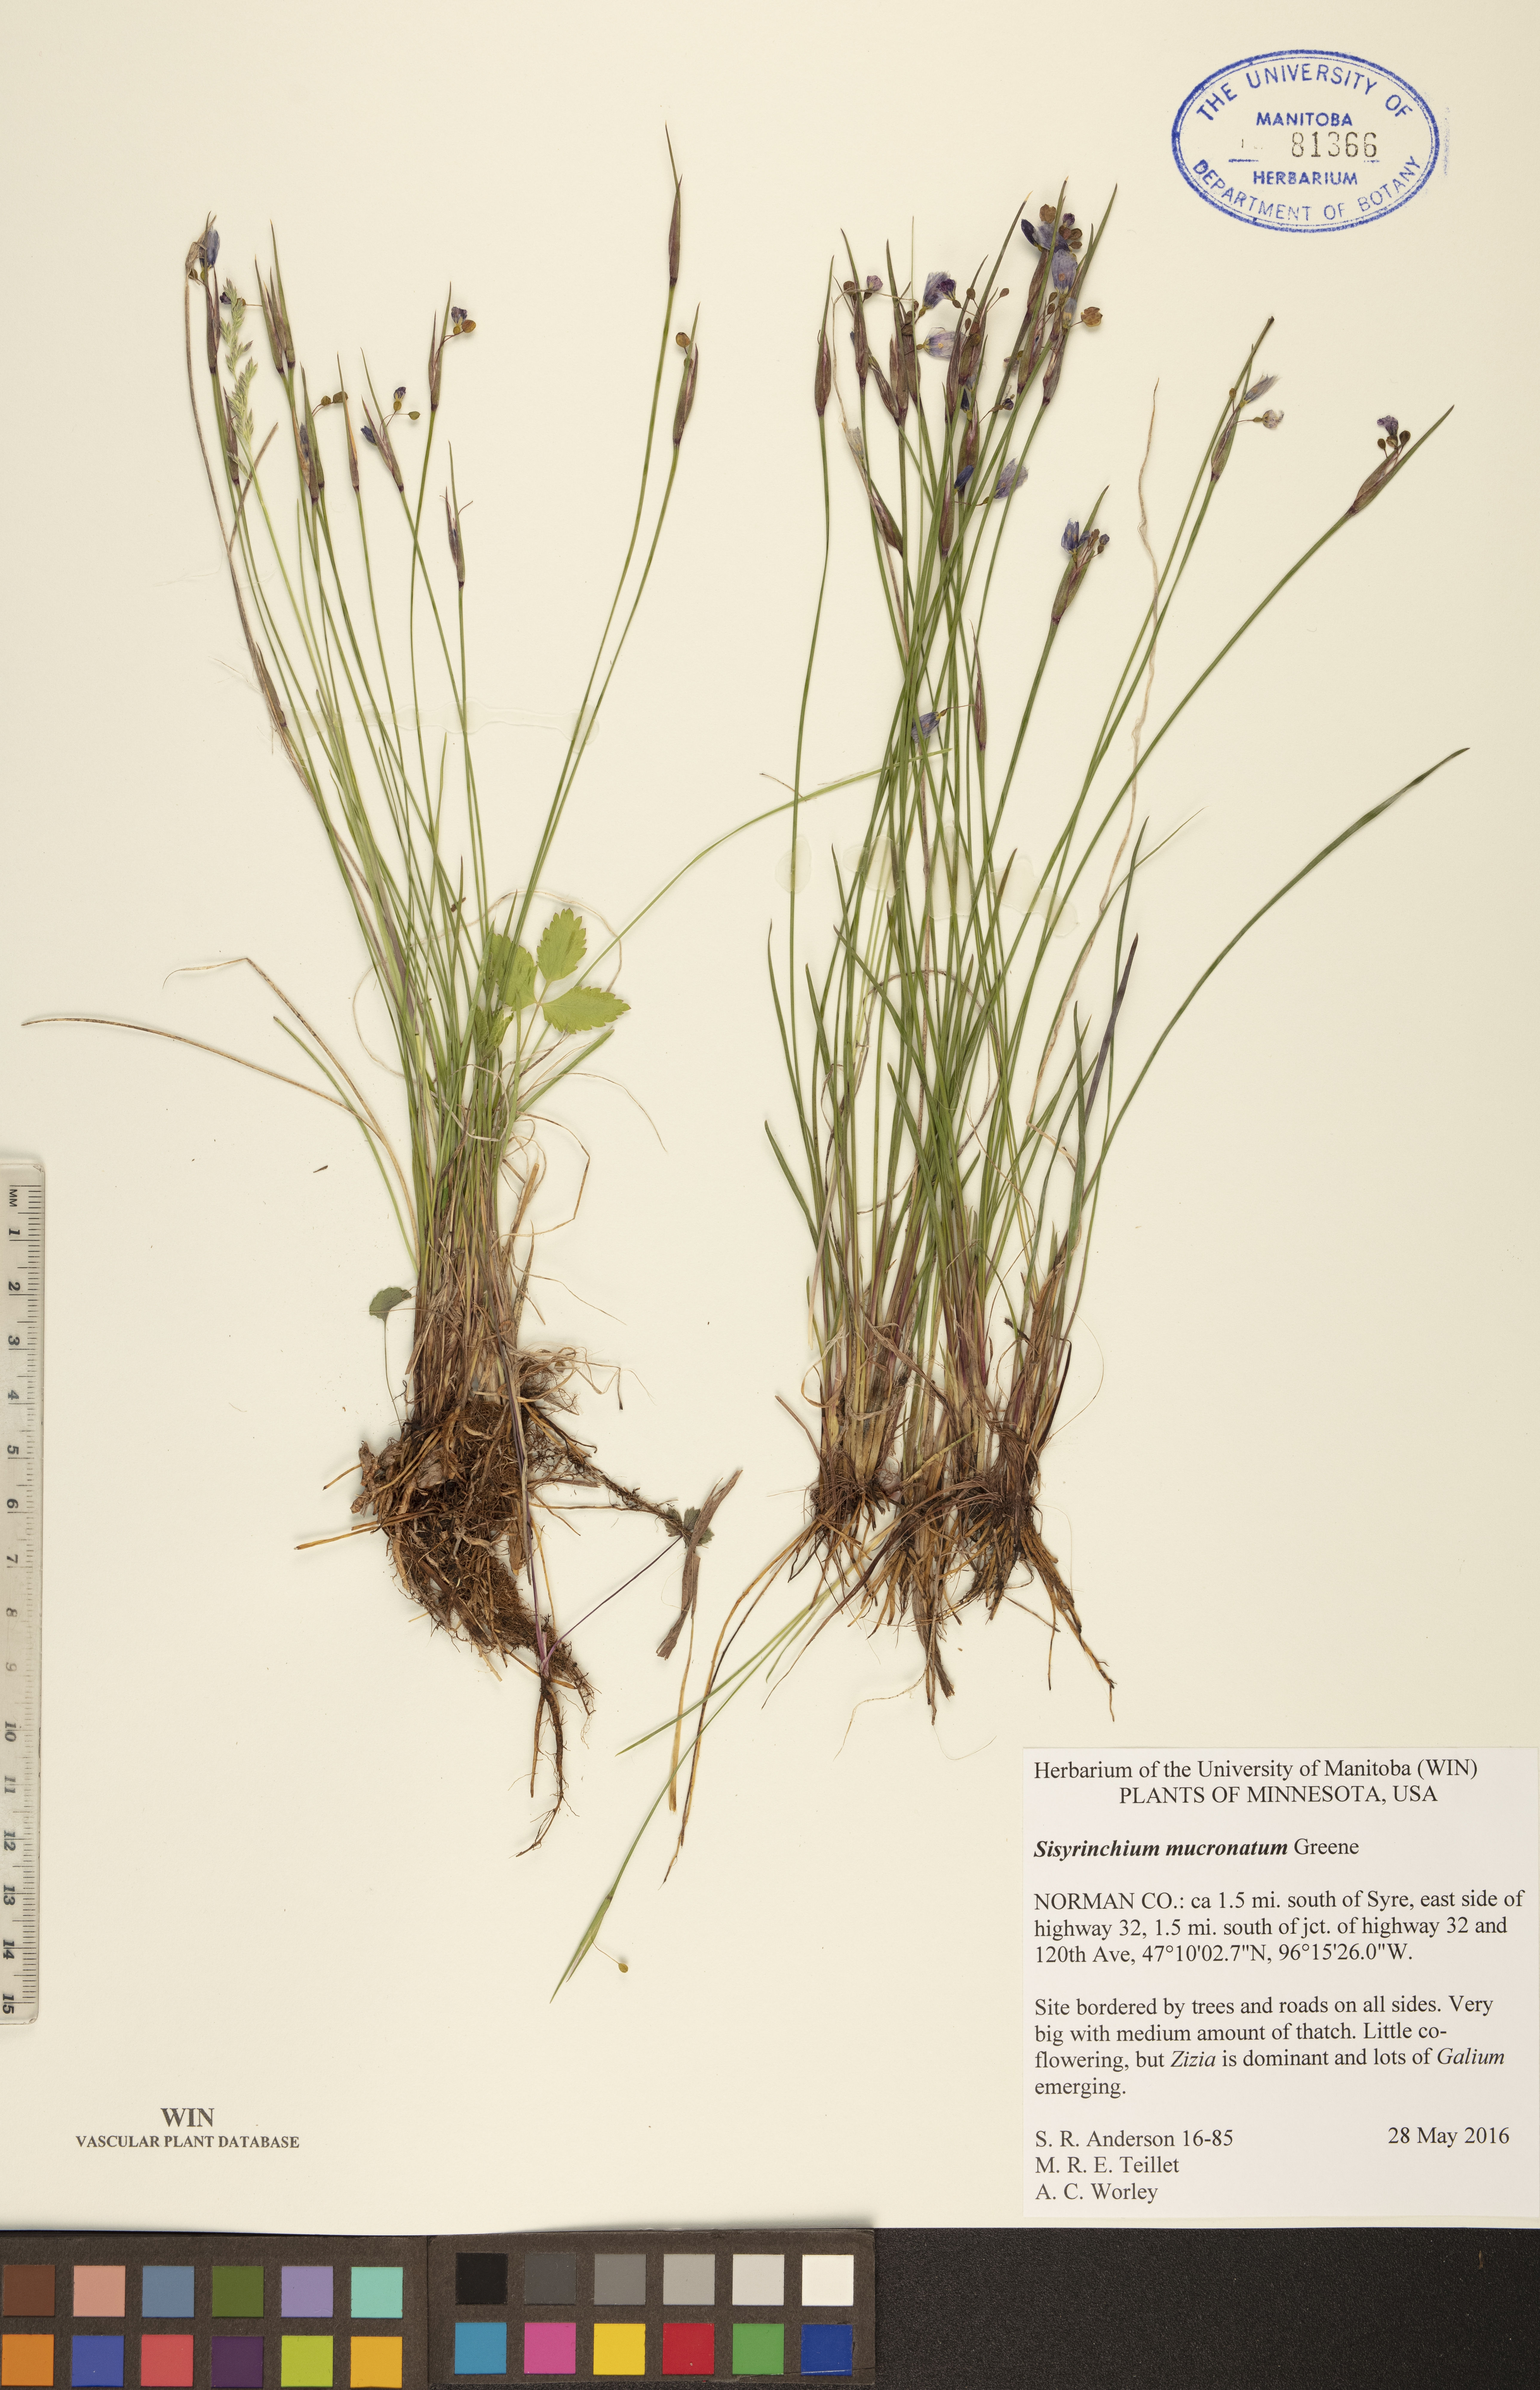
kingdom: Plantae
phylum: Tracheophyta
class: Liliopsida
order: Asparagales
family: Iridaceae
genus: Sisyrinchium
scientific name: Sisyrinchium mucronatum
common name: Eastern blue-eyed-grass
